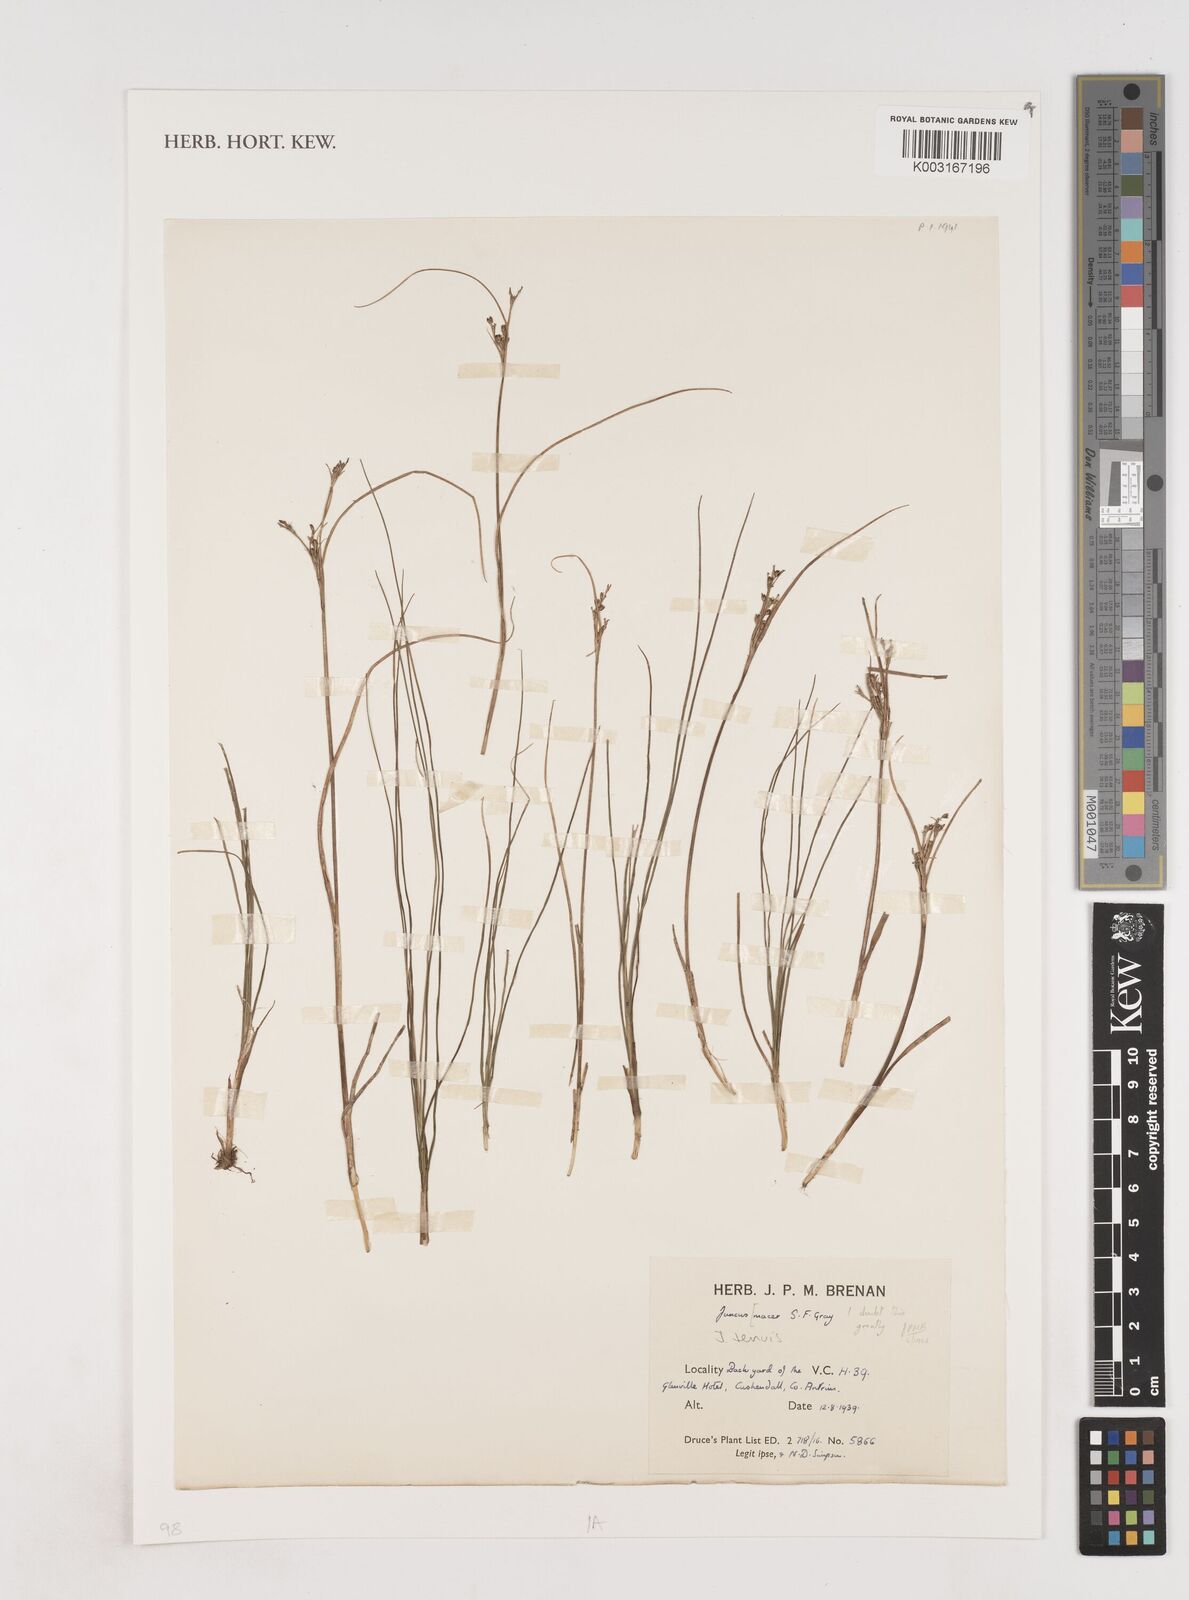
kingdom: Plantae
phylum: Tracheophyta
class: Liliopsida
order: Poales
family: Juncaceae
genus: Juncus
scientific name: Juncus tenuis
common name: Slender rush
